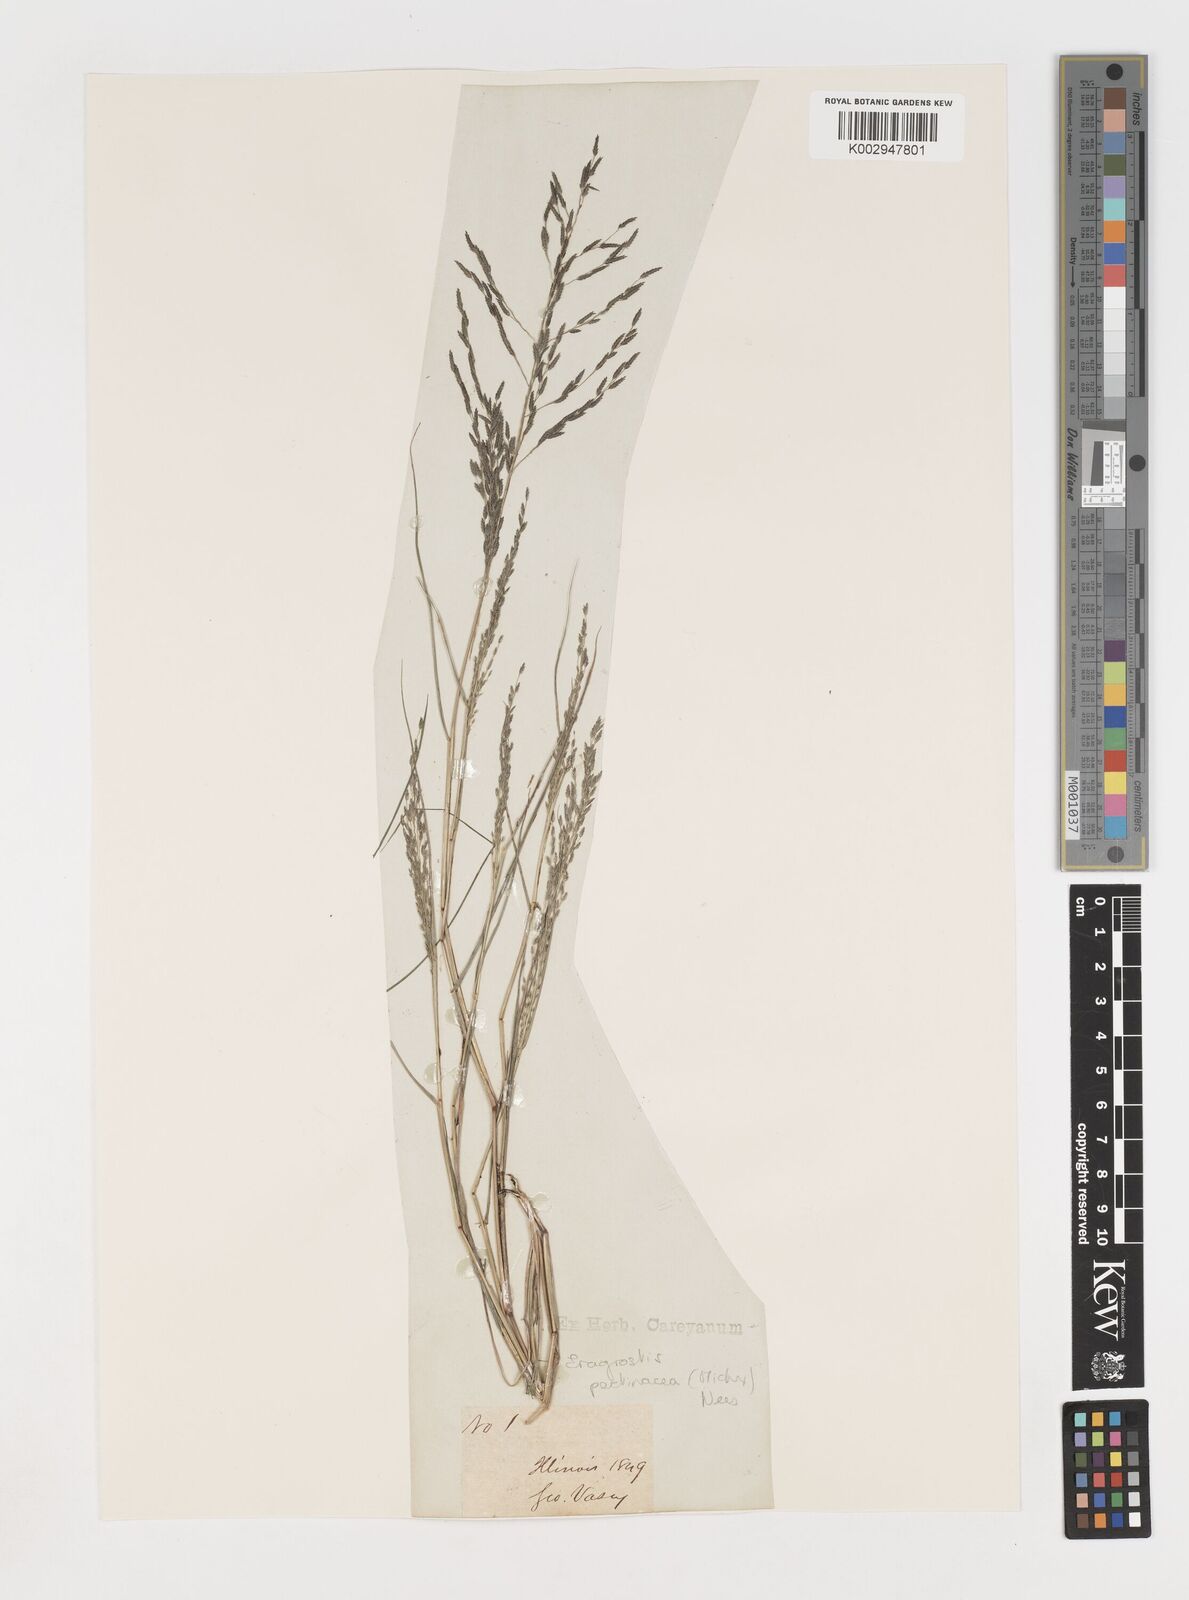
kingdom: Plantae
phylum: Tracheophyta
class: Liliopsida
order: Poales
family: Poaceae
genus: Eragrostis
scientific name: Eragrostis pectinacea
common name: Tufted lovegrass
